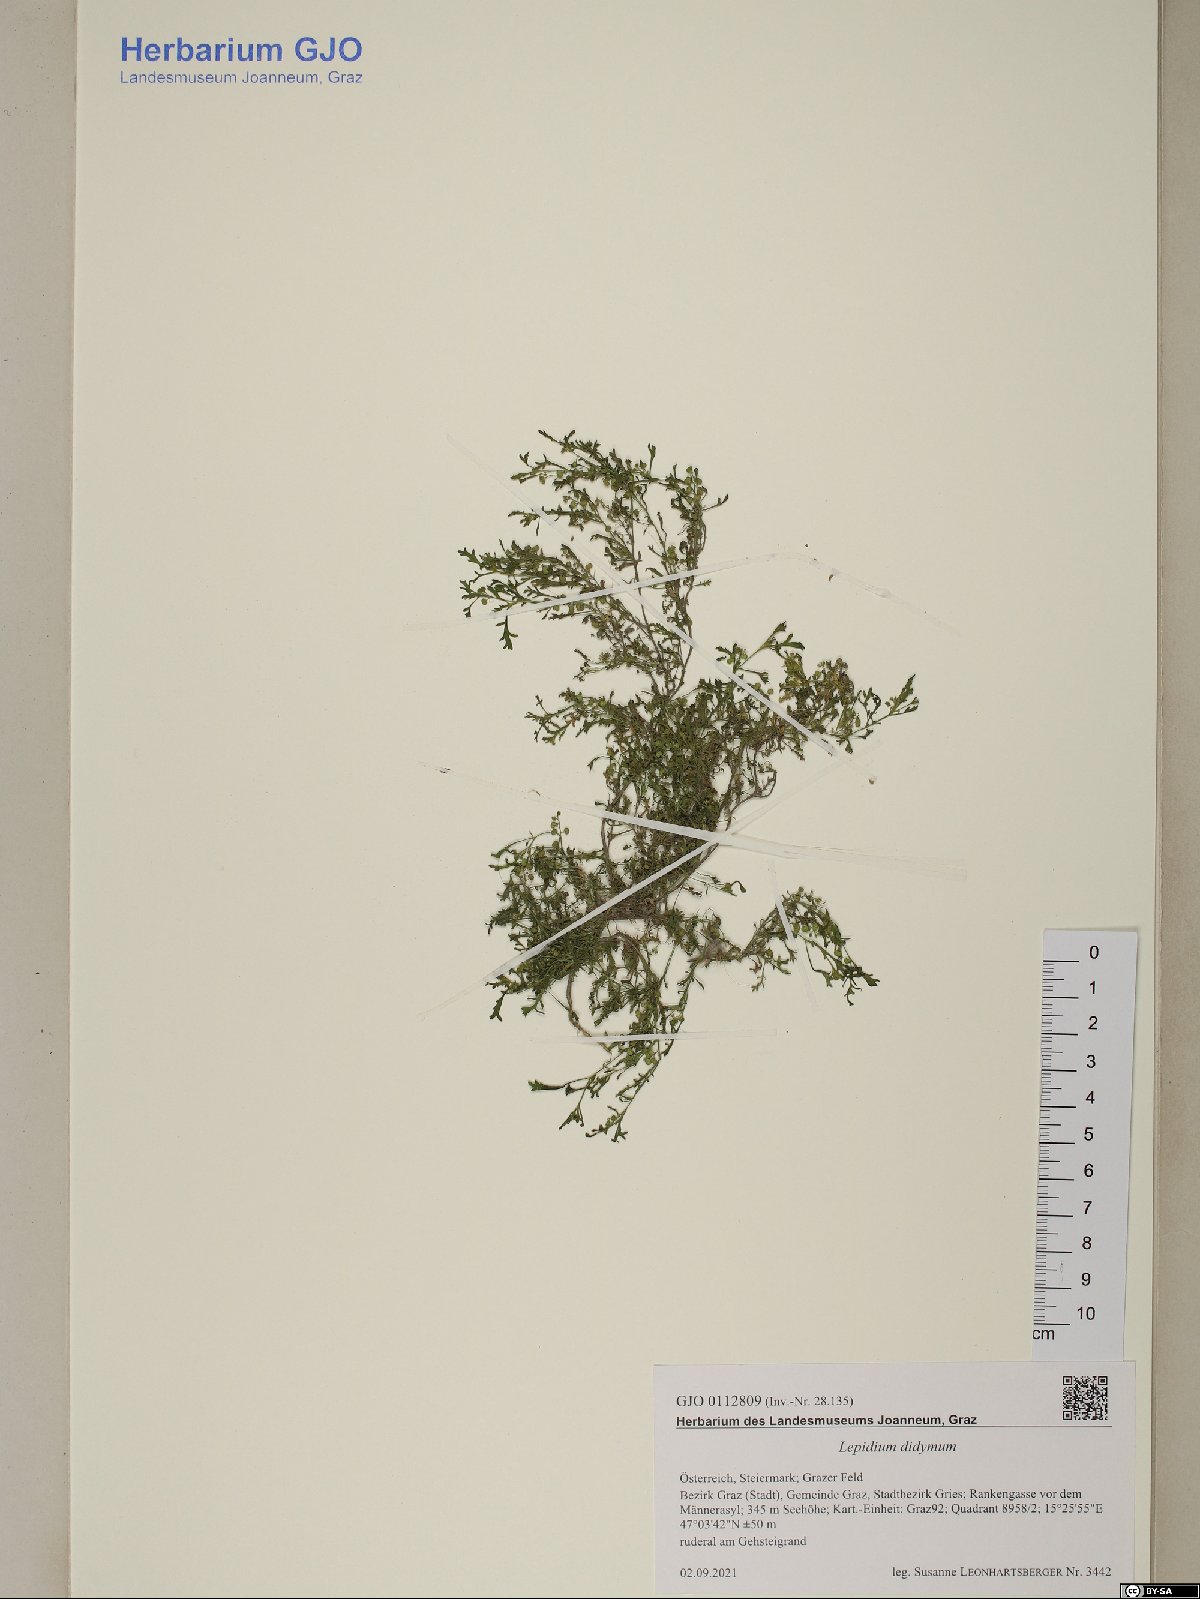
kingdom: Plantae
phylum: Tracheophyta
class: Magnoliopsida
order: Brassicales
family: Brassicaceae
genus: Lepidium
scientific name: Lepidium didymum
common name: Lesser swinecress
